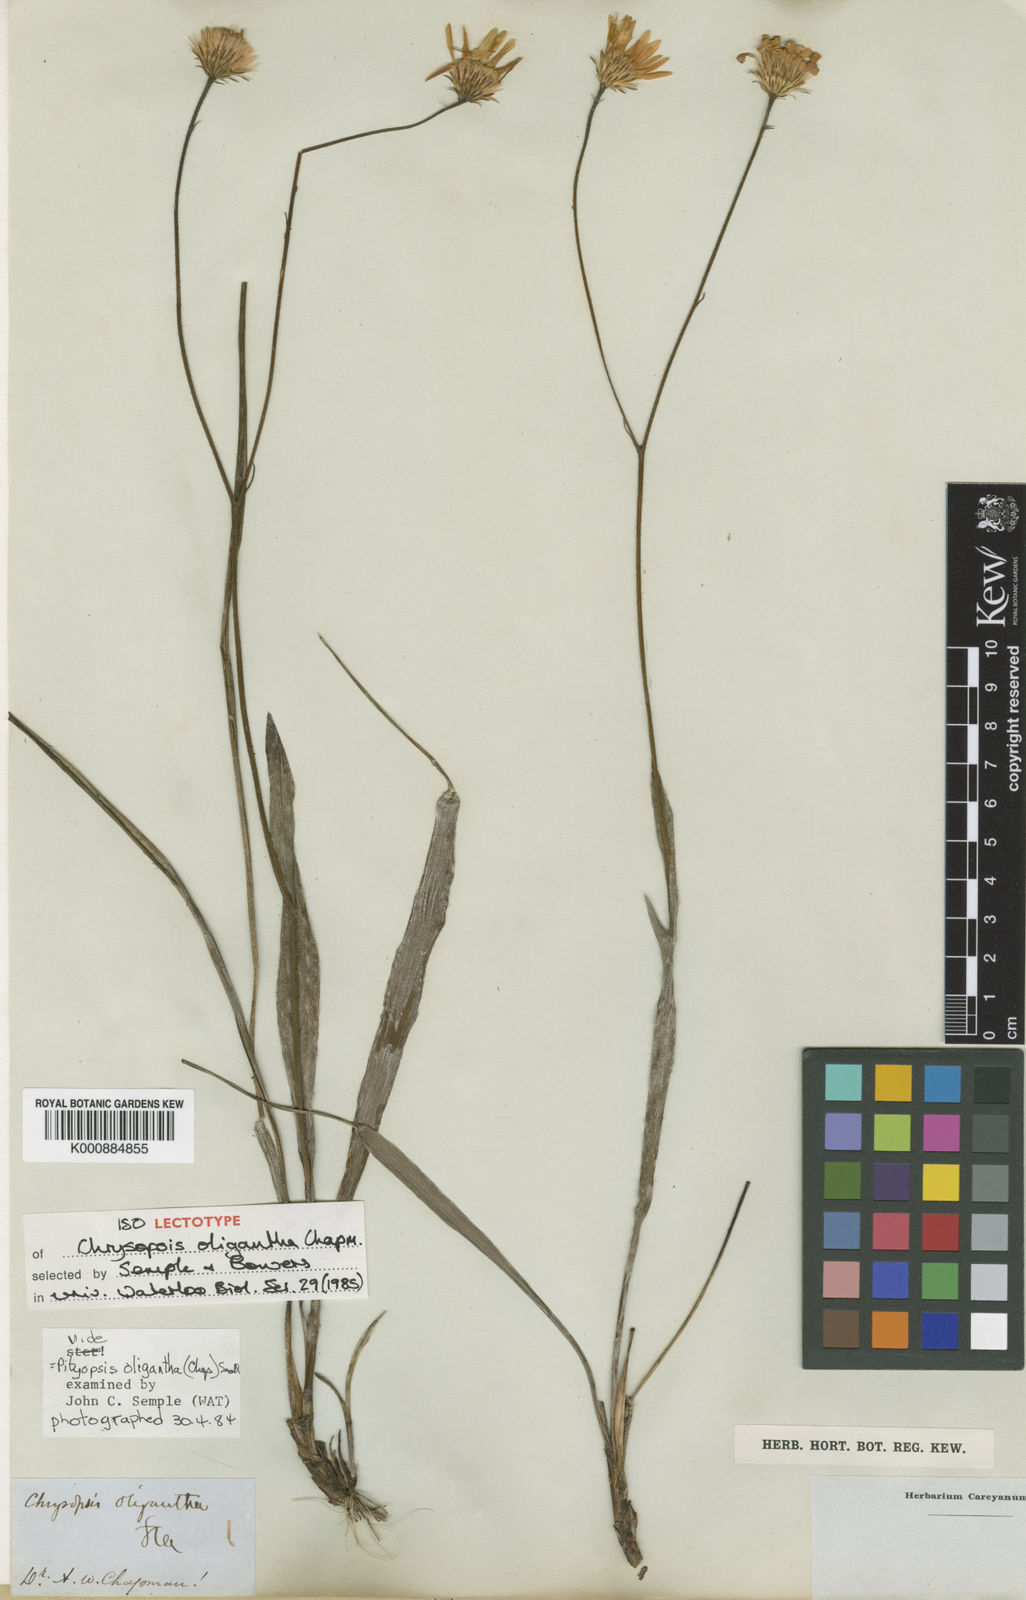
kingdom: Plantae
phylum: Tracheophyta
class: Magnoliopsida
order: Asterales
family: Asteraceae
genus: Pityopsis
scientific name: Pityopsis oligantha
